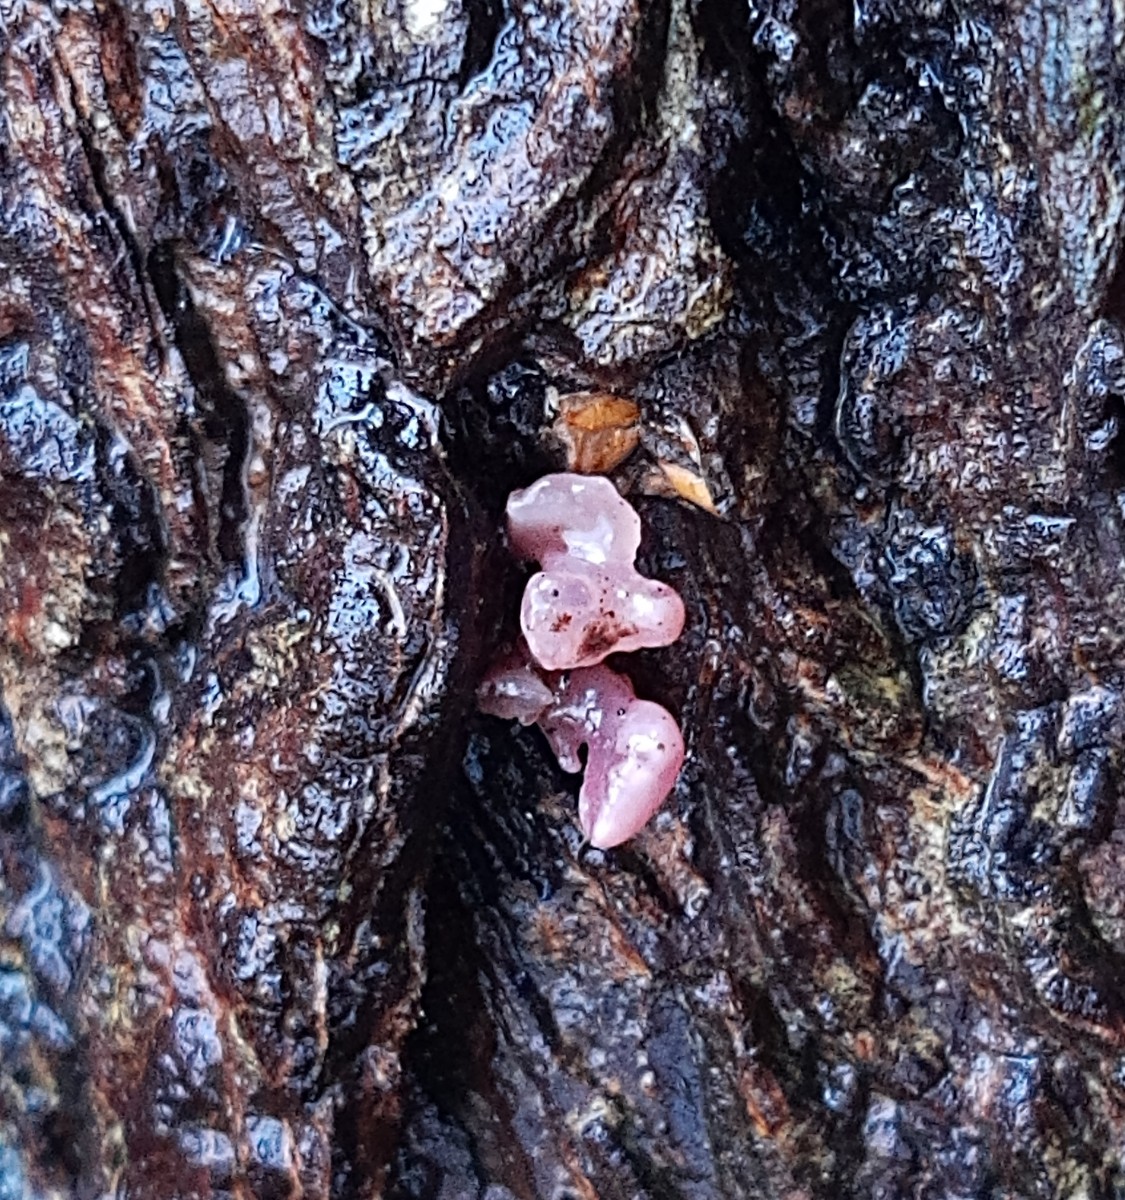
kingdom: Fungi
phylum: Ascomycota
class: Leotiomycetes
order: Helotiales
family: Gelatinodiscaceae
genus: Ascocoryne
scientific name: Ascocoryne sarcoides
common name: rødlilla sejskive
